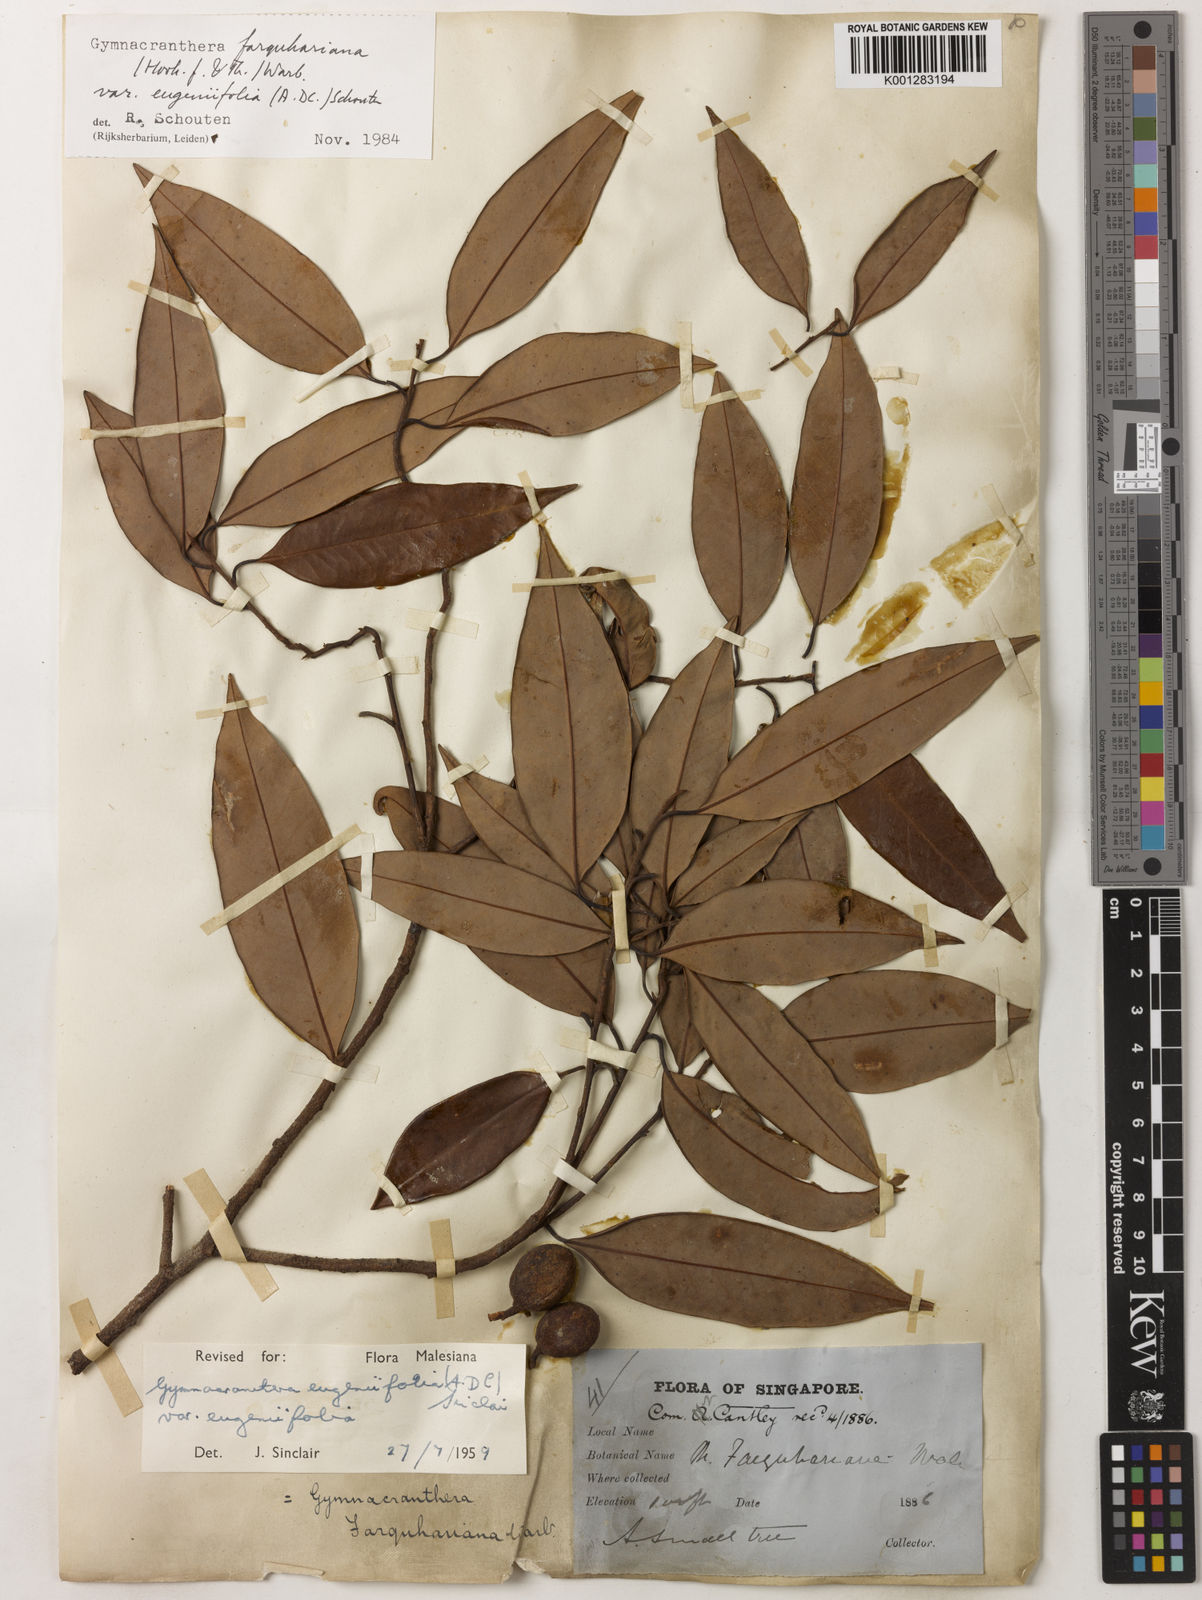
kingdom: Plantae
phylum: Tracheophyta
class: Magnoliopsida
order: Magnoliales
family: Myristicaceae
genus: Gymnacranthera
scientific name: Gymnacranthera farquhariana
